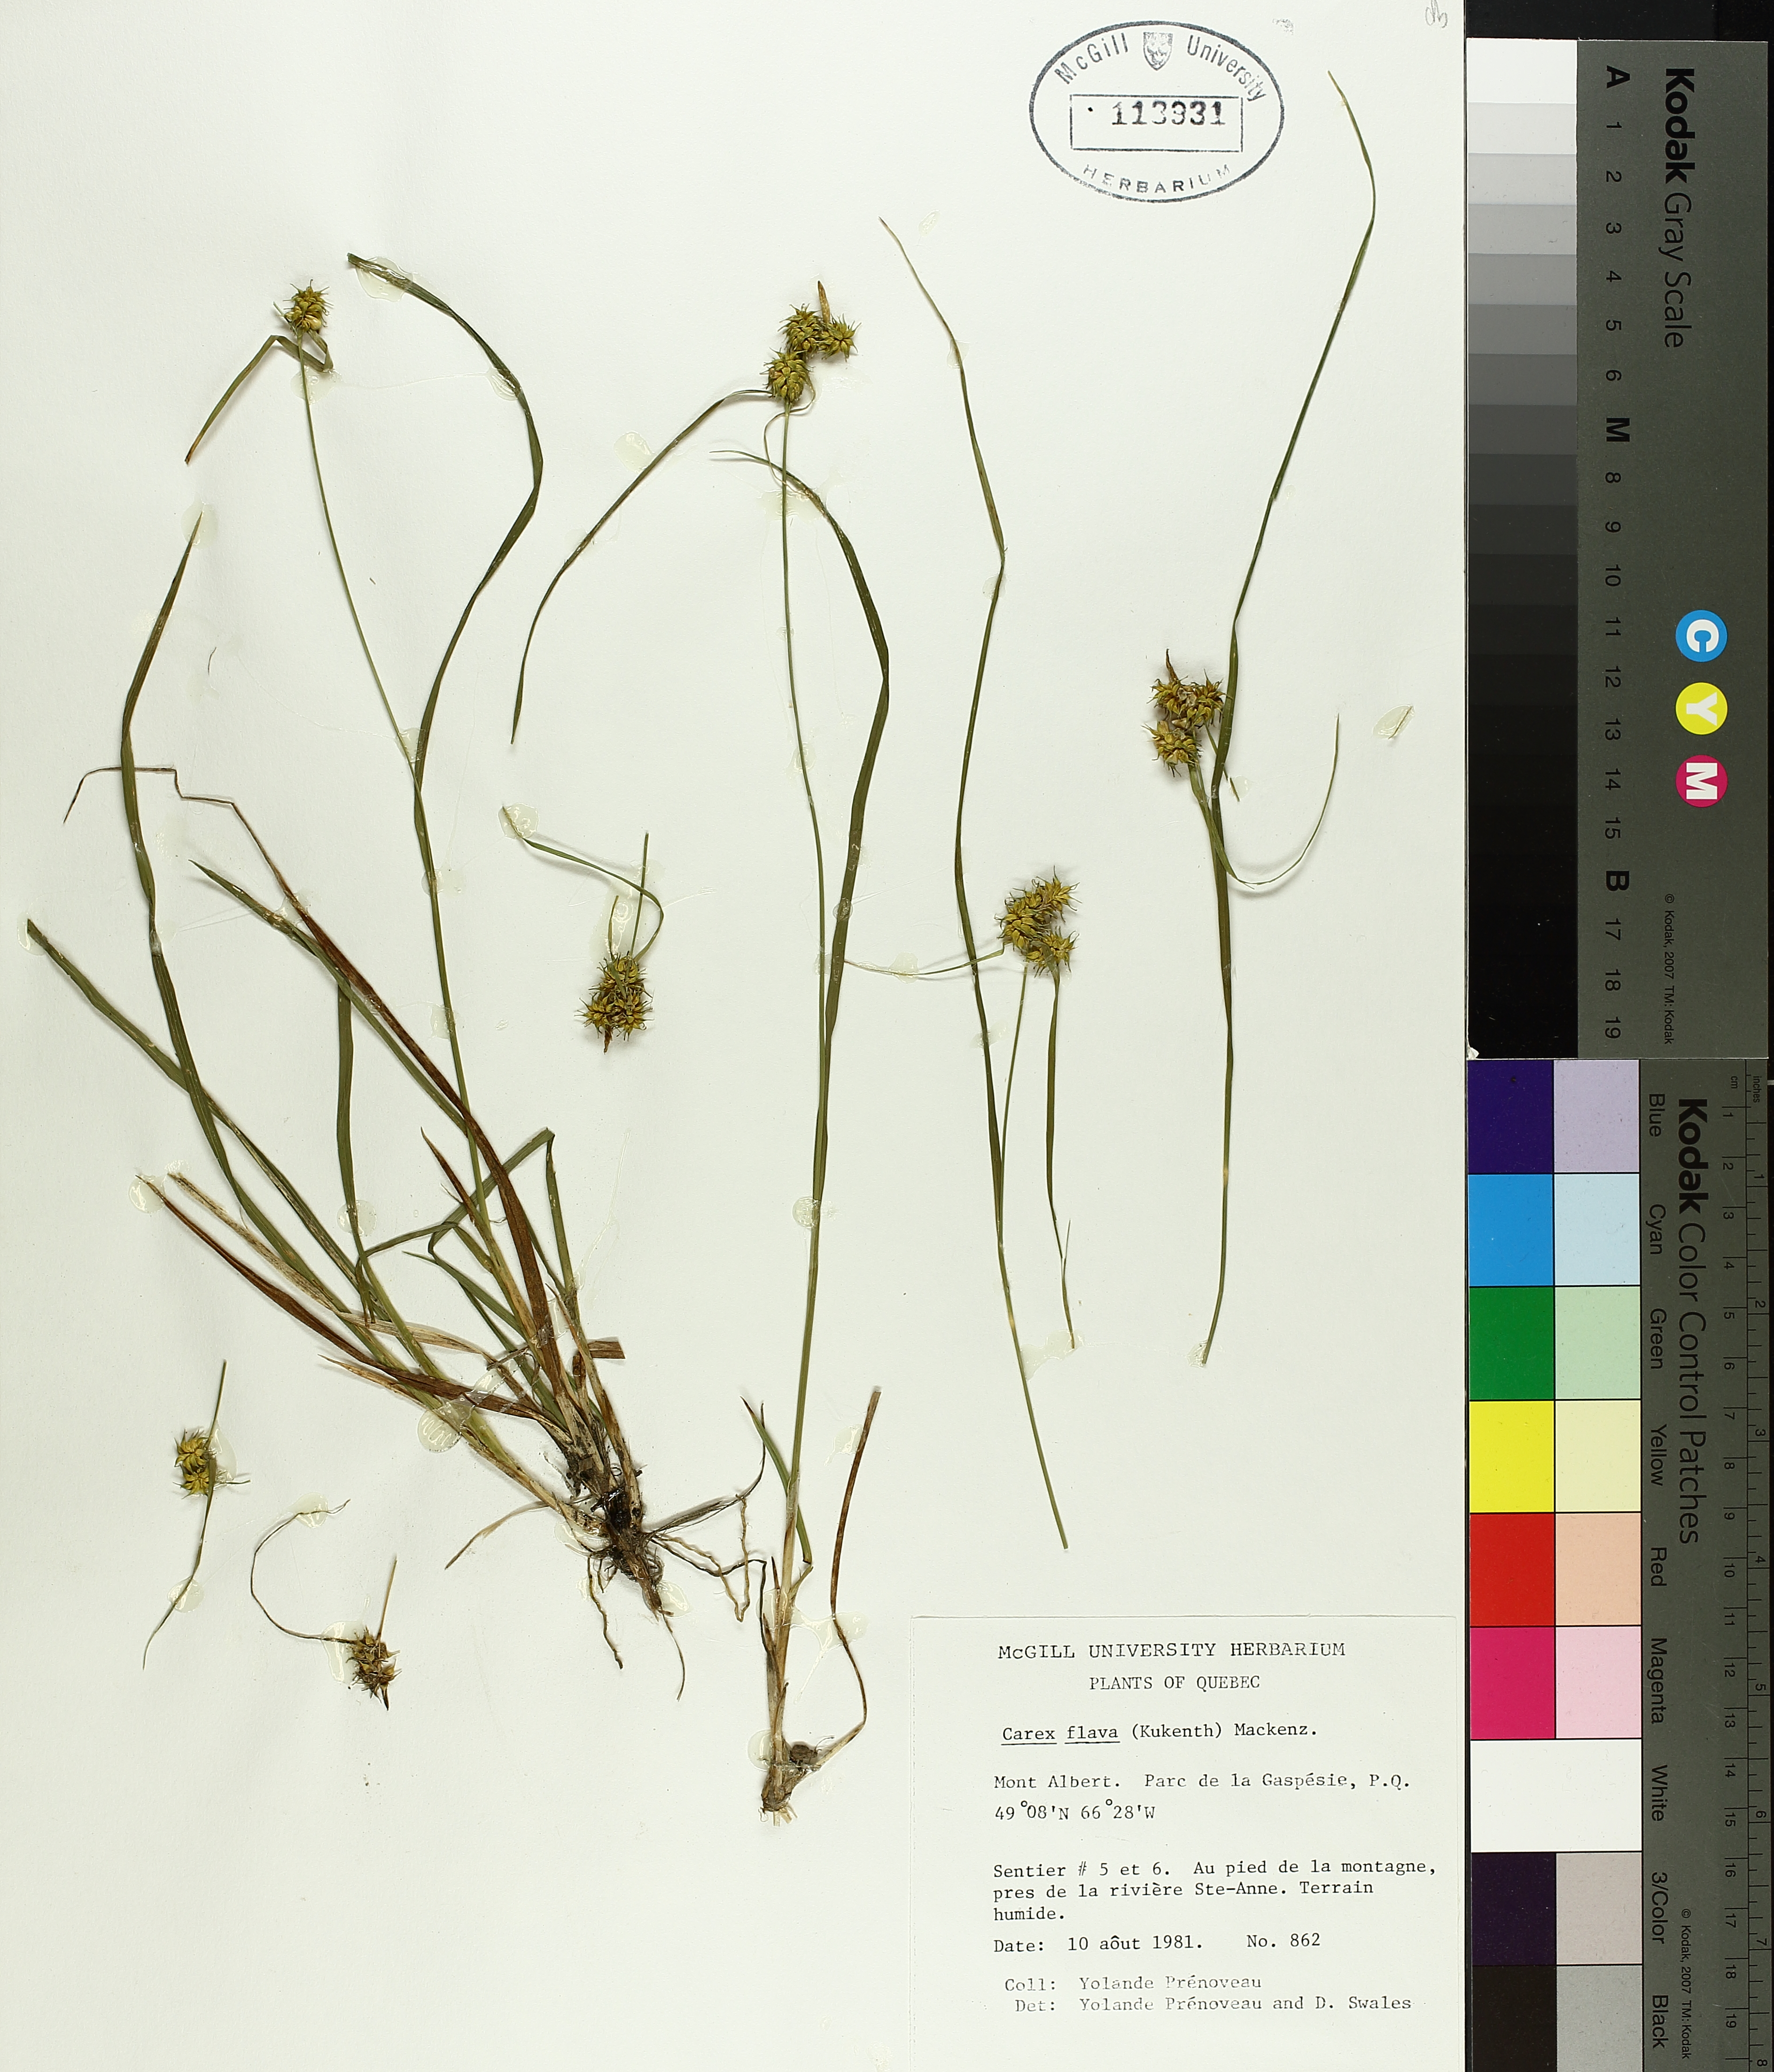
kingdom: Plantae
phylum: Tracheophyta
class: Liliopsida
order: Poales
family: Cyperaceae
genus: Carex
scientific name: Carex flava
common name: Large yellow-sedge
